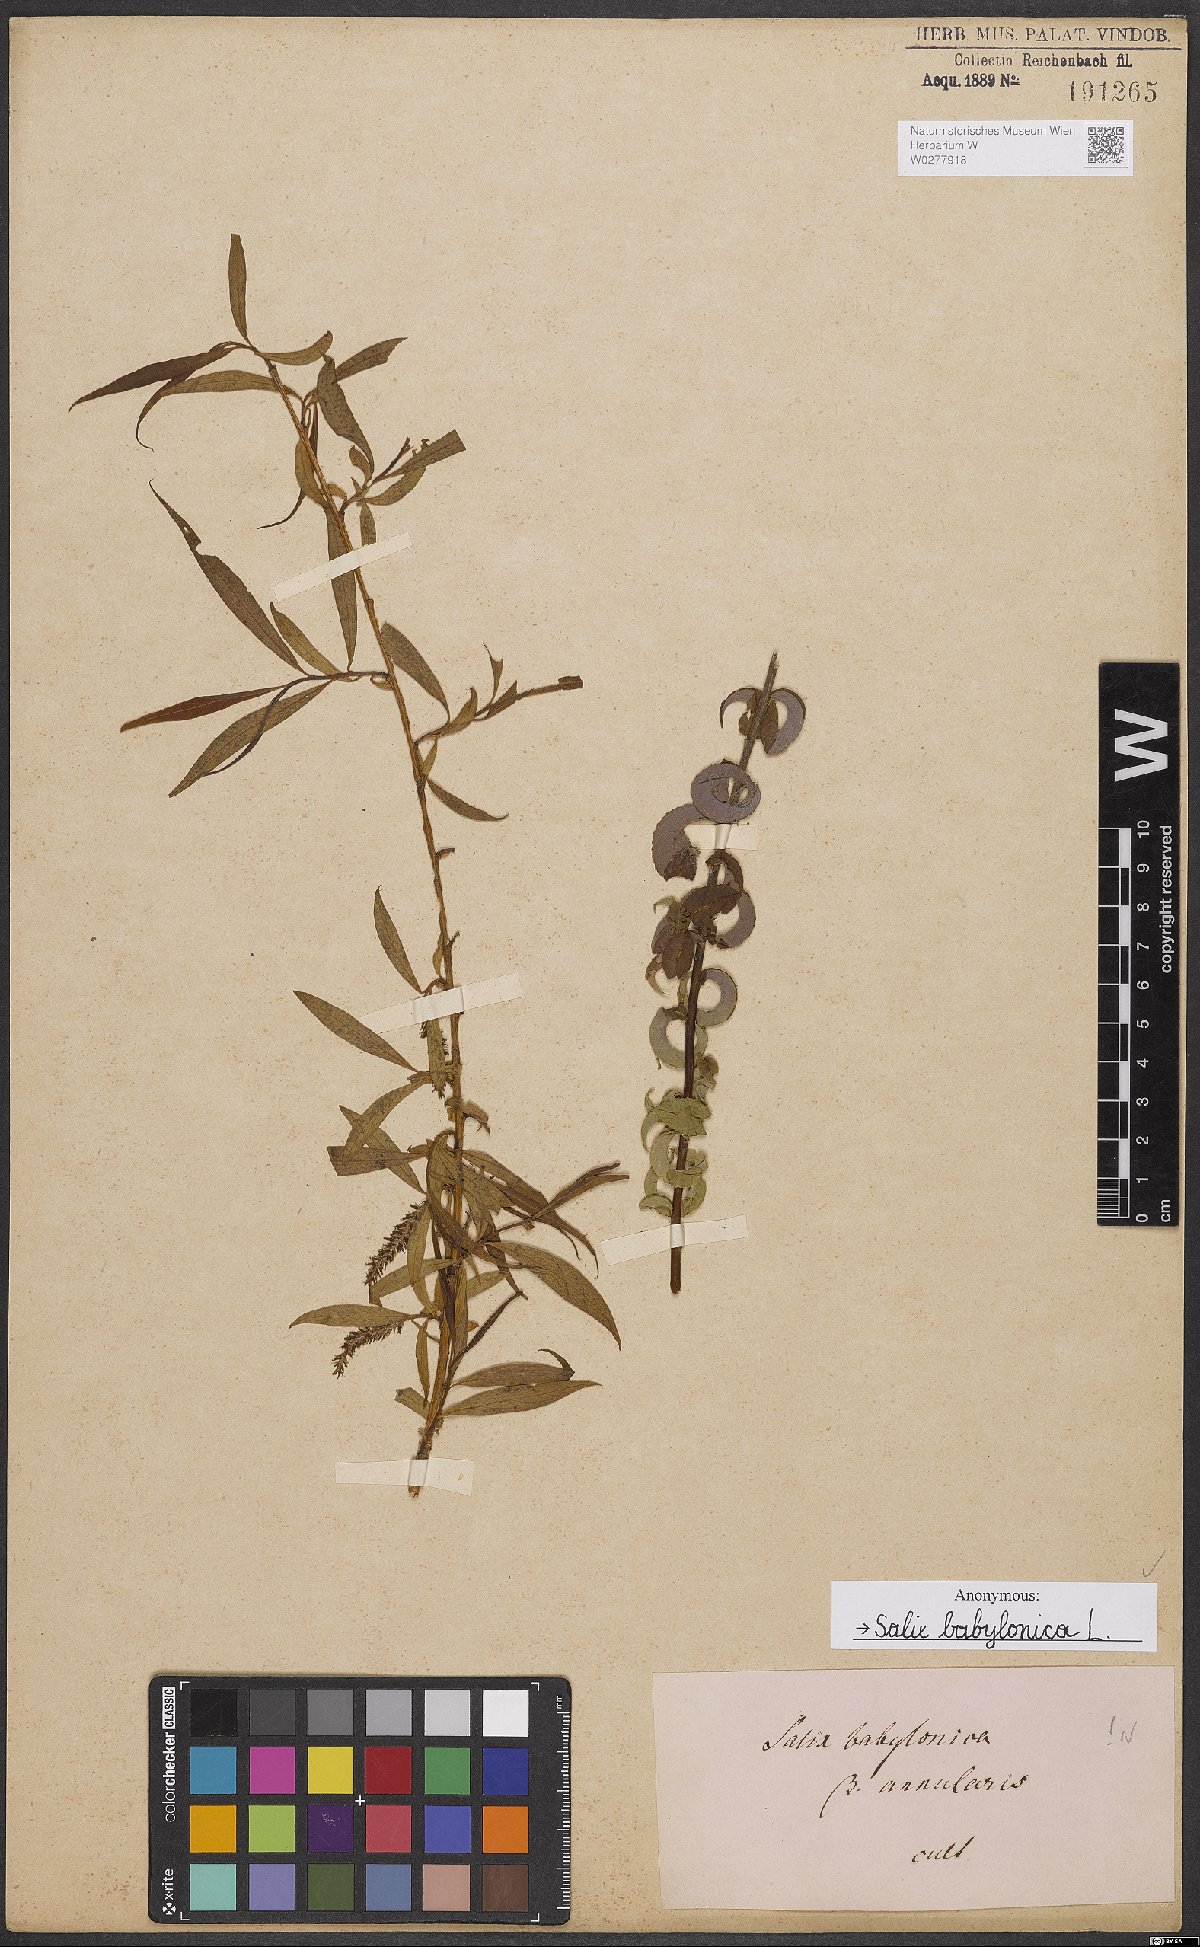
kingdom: Plantae
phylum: Tracheophyta
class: Magnoliopsida
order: Malpighiales
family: Salicaceae
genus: Salix
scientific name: Salix babylonica
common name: Weeping willow
